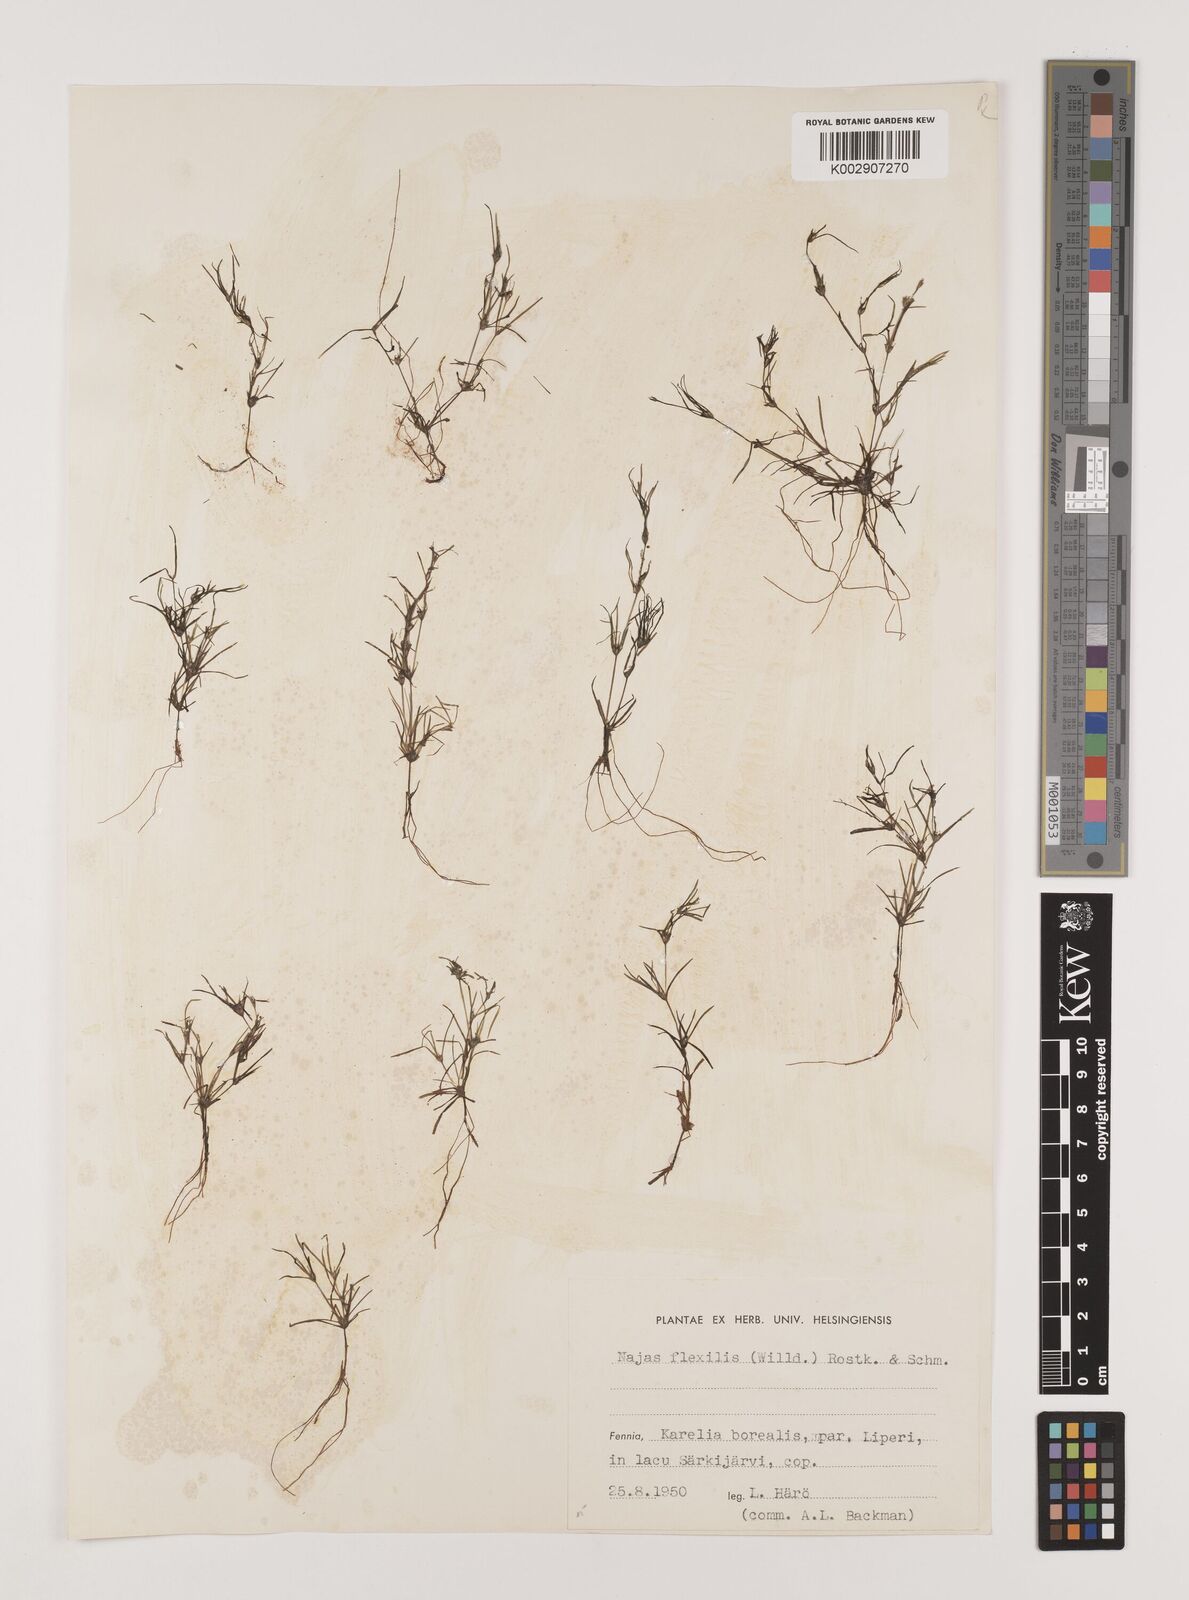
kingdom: Plantae
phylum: Tracheophyta
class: Liliopsida
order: Alismatales
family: Hydrocharitaceae
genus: Najas
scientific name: Najas flexilis
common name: Slender naiad
